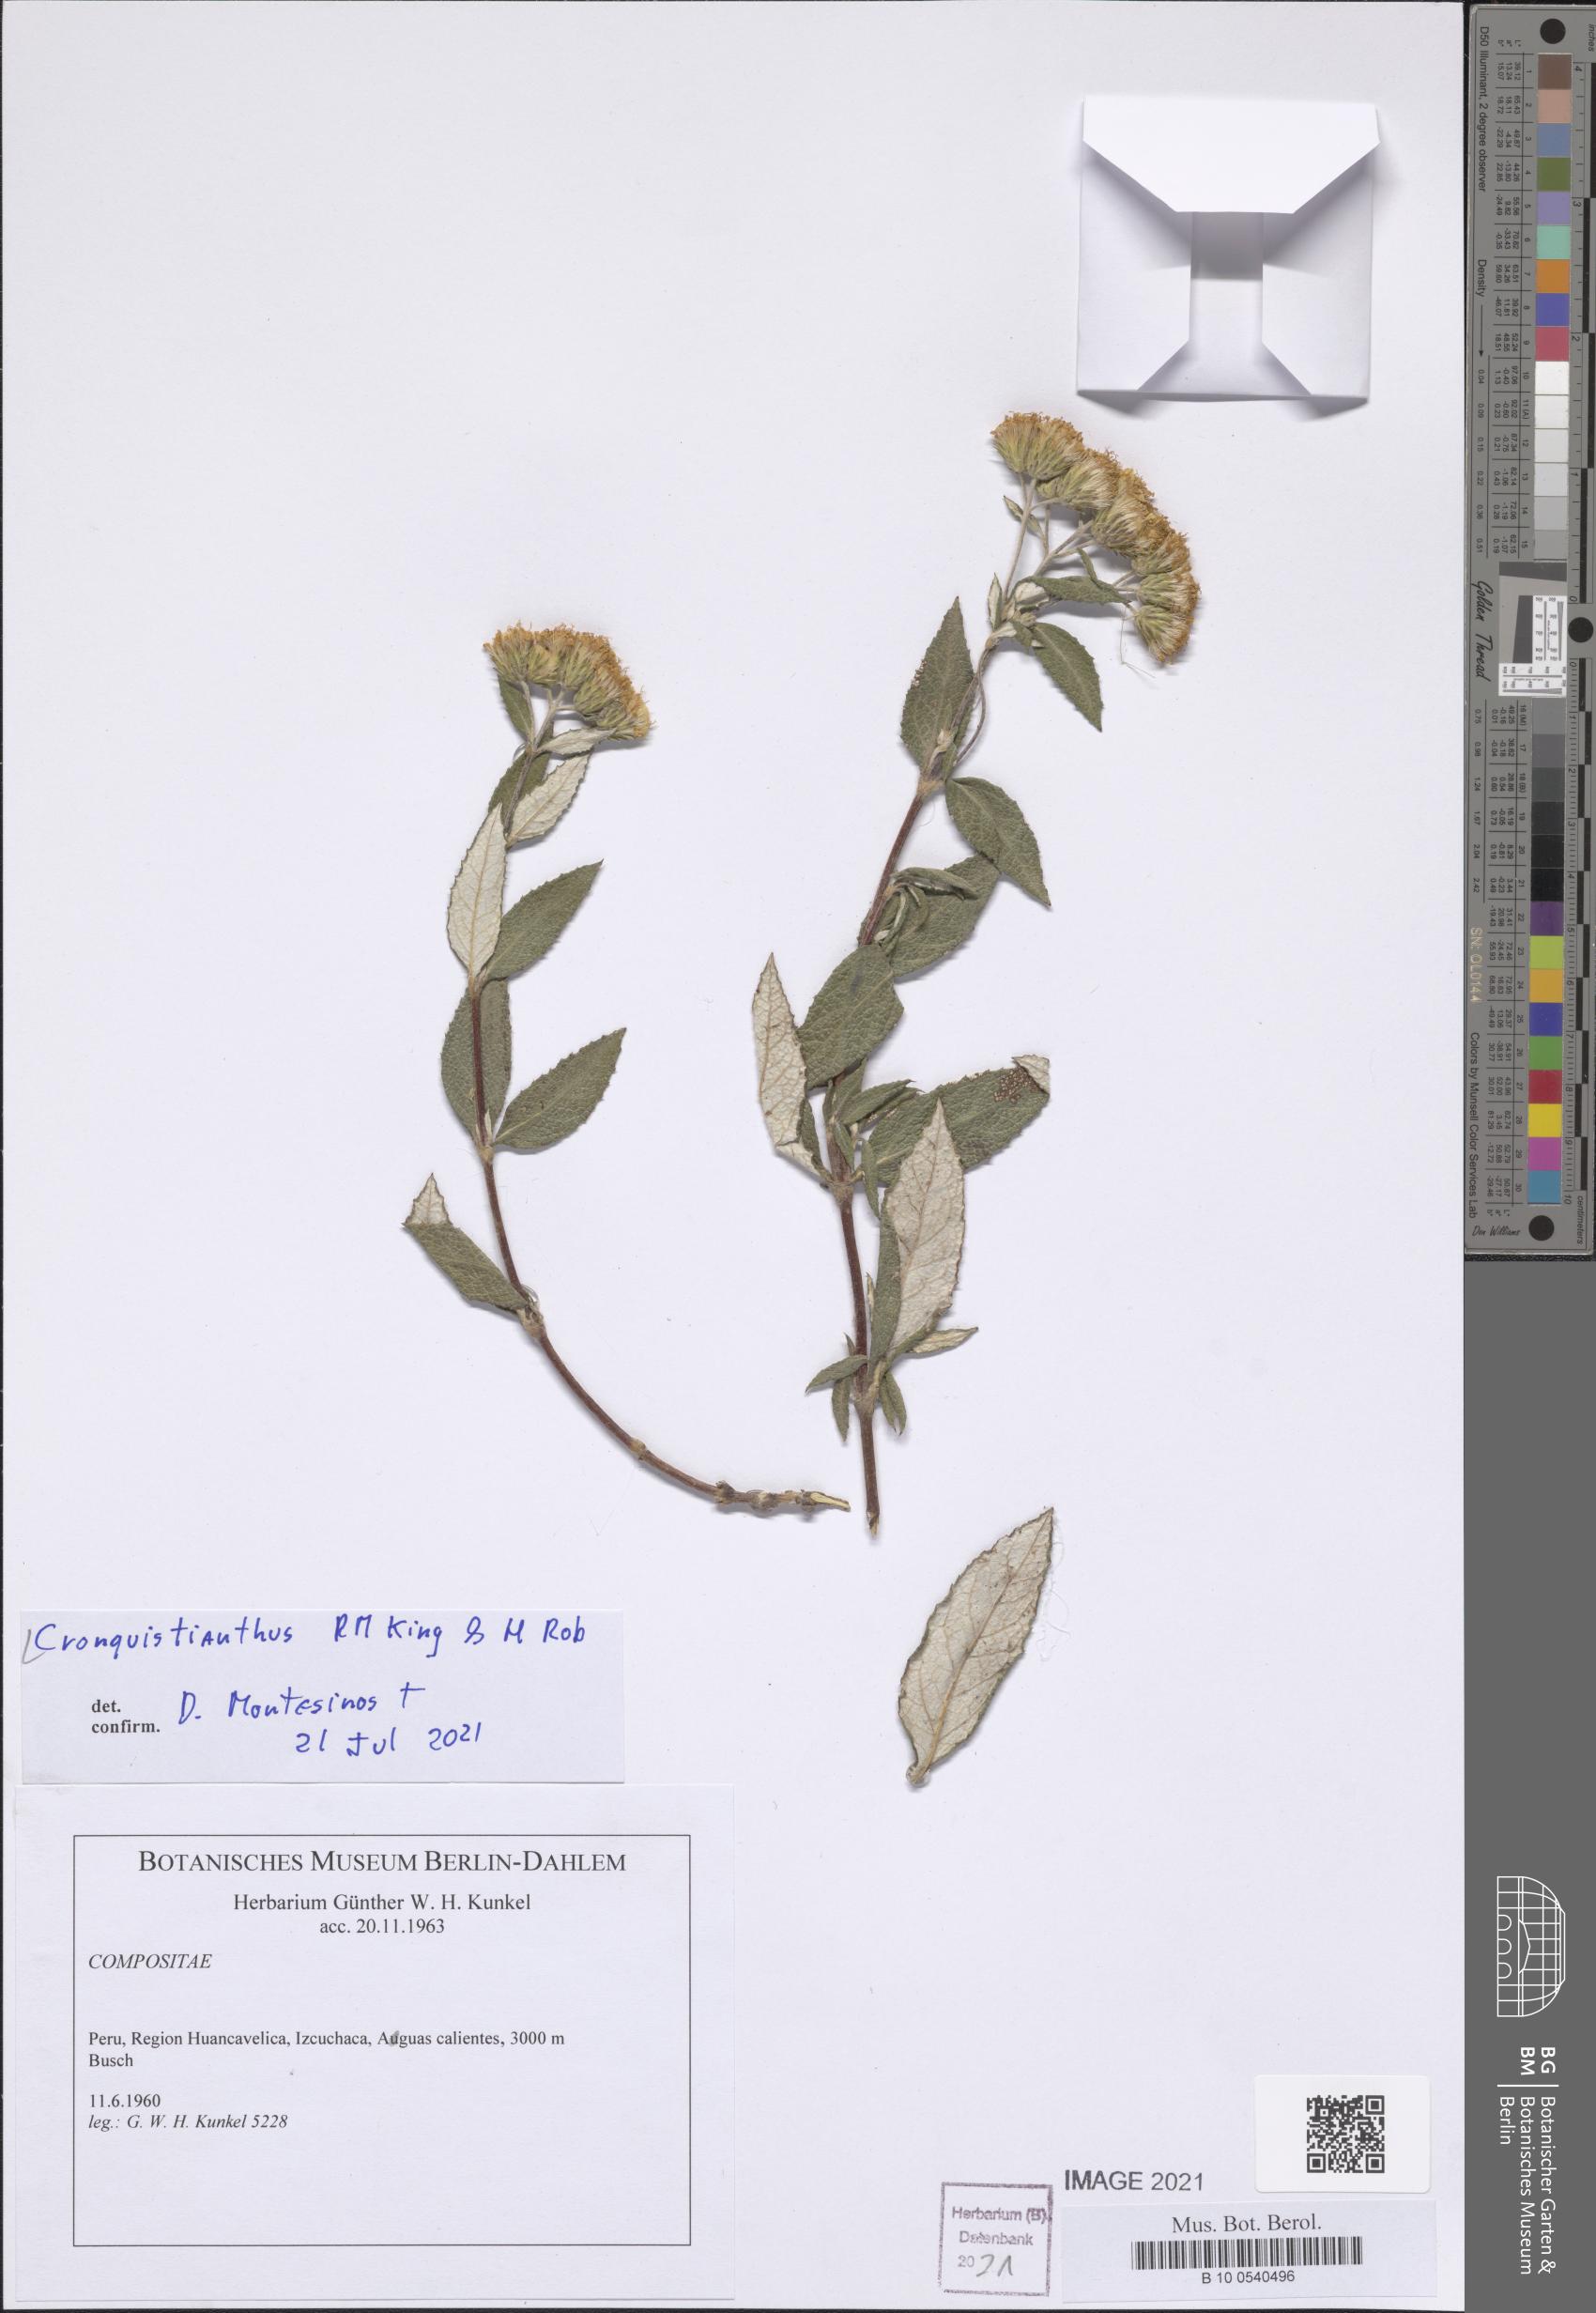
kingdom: Plantae
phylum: Tracheophyta
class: Magnoliopsida
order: Asterales
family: Asteraceae
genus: Cronquistianthus
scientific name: Cronquistianthus
